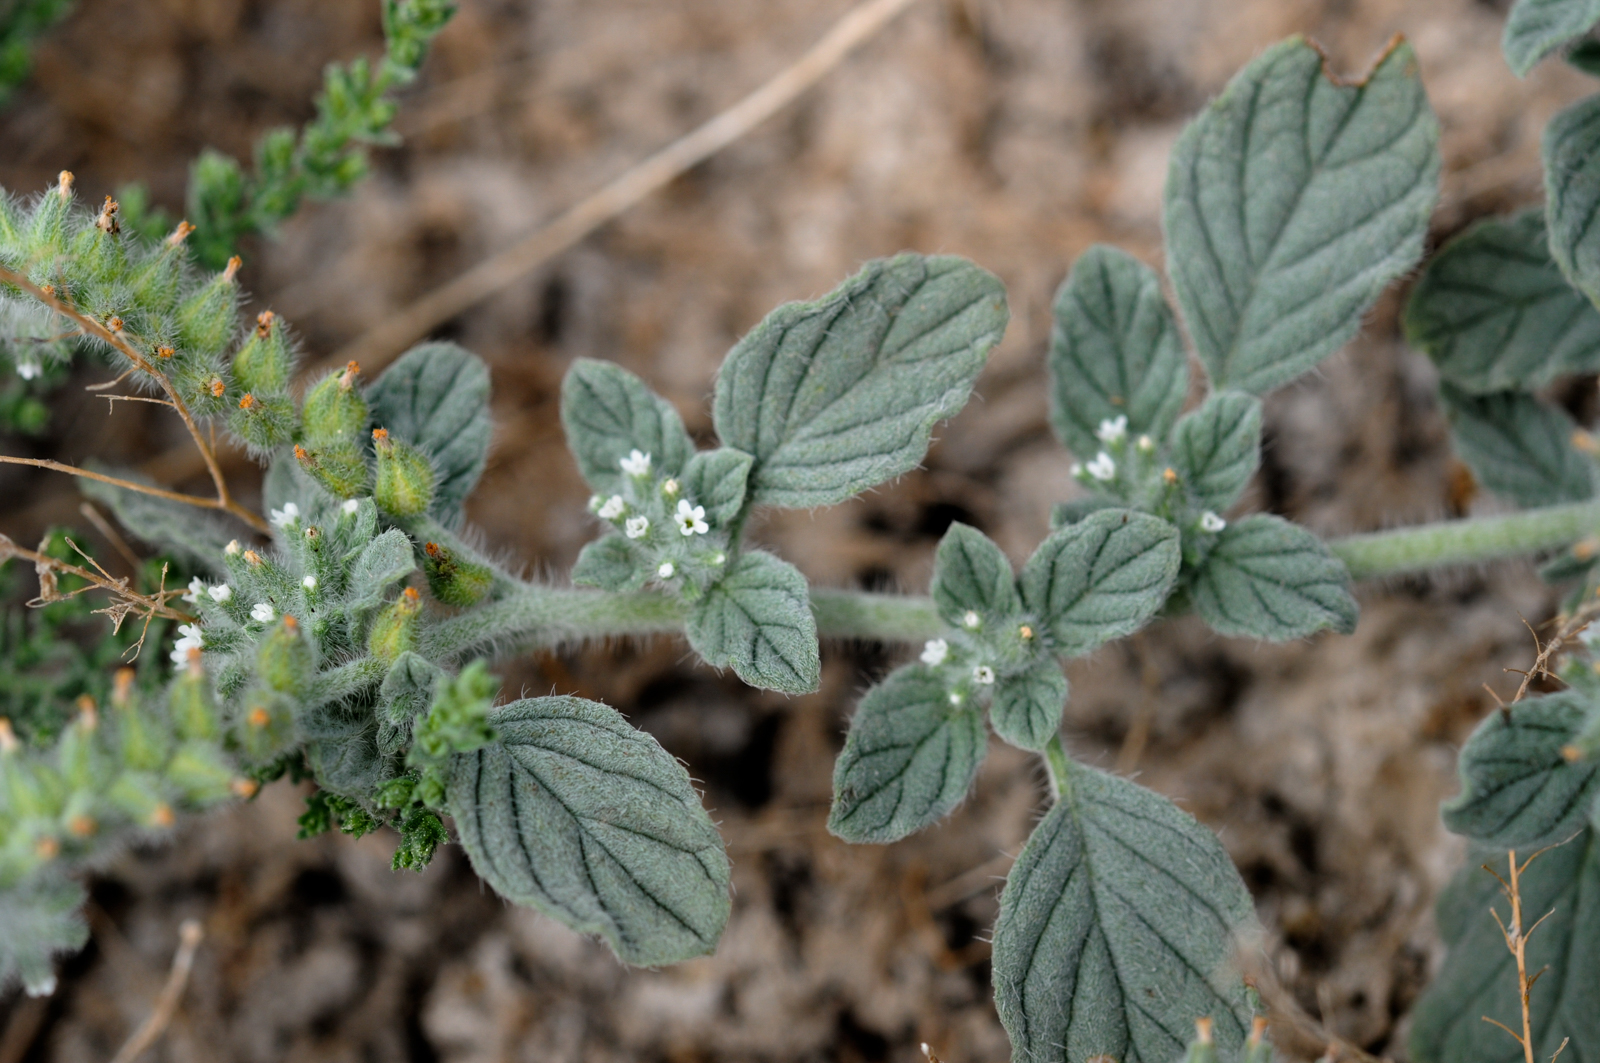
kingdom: Plantae
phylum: Tracheophyta
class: Magnoliopsida
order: Boraginales
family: Heliotropiaceae
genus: Heliotropium
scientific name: Heliotropium supinum
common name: Dwarf heliotrope
